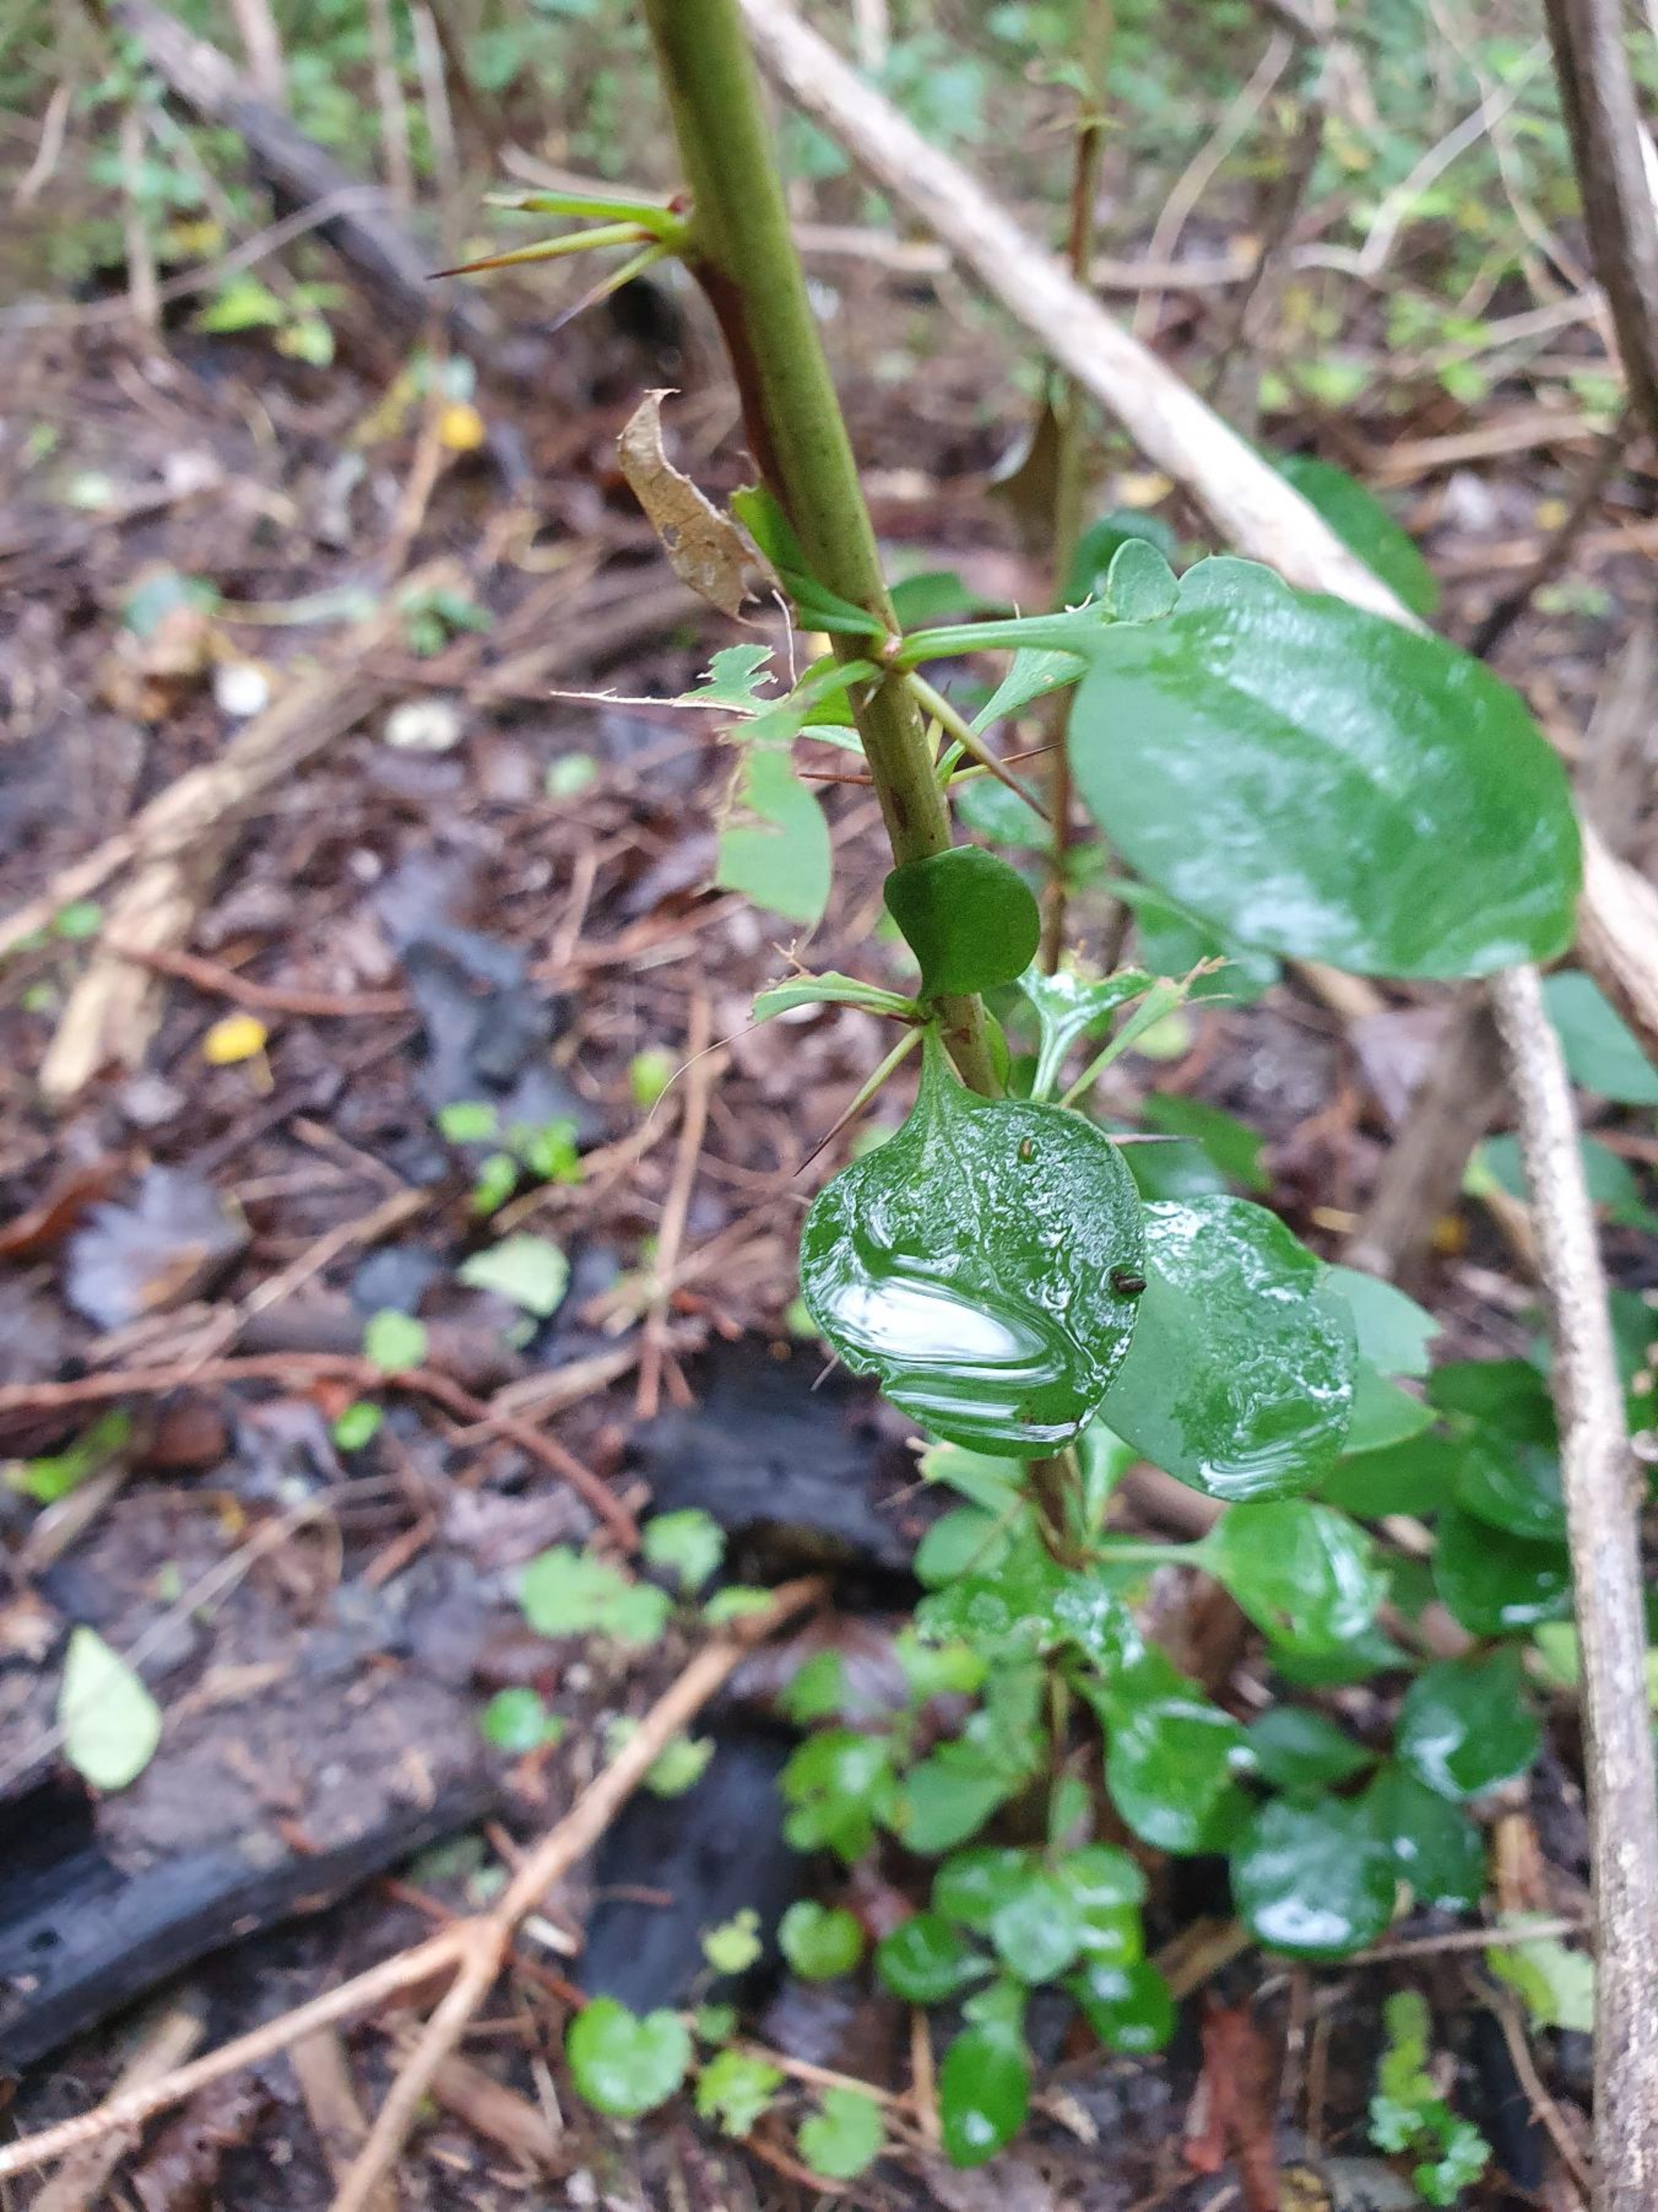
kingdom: Plantae
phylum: Tracheophyta
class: Magnoliopsida
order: Ranunculales
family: Berberidaceae
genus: Berberis
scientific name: Berberis vulgaris
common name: Almindelig berberis
